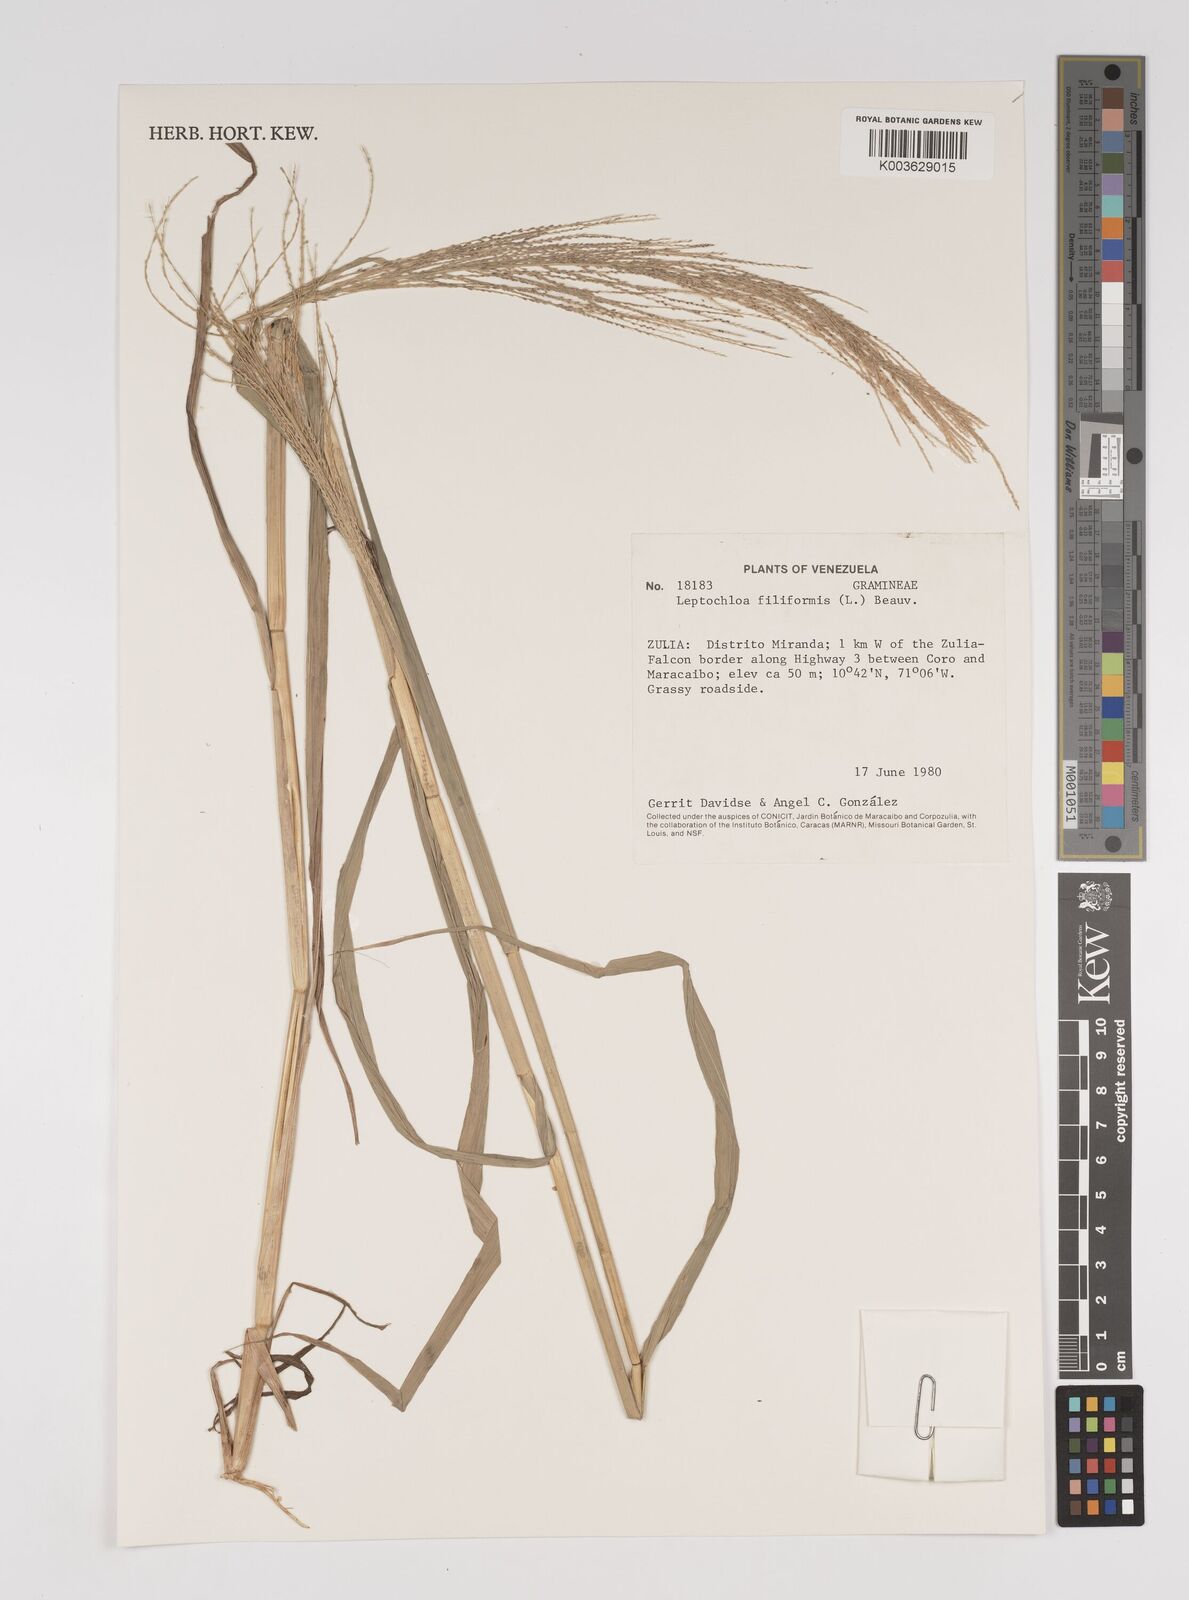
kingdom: Plantae
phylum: Tracheophyta
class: Liliopsida
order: Poales
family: Poaceae
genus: Leptochloa
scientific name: Leptochloa panicea
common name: Mucronate sprangletop
